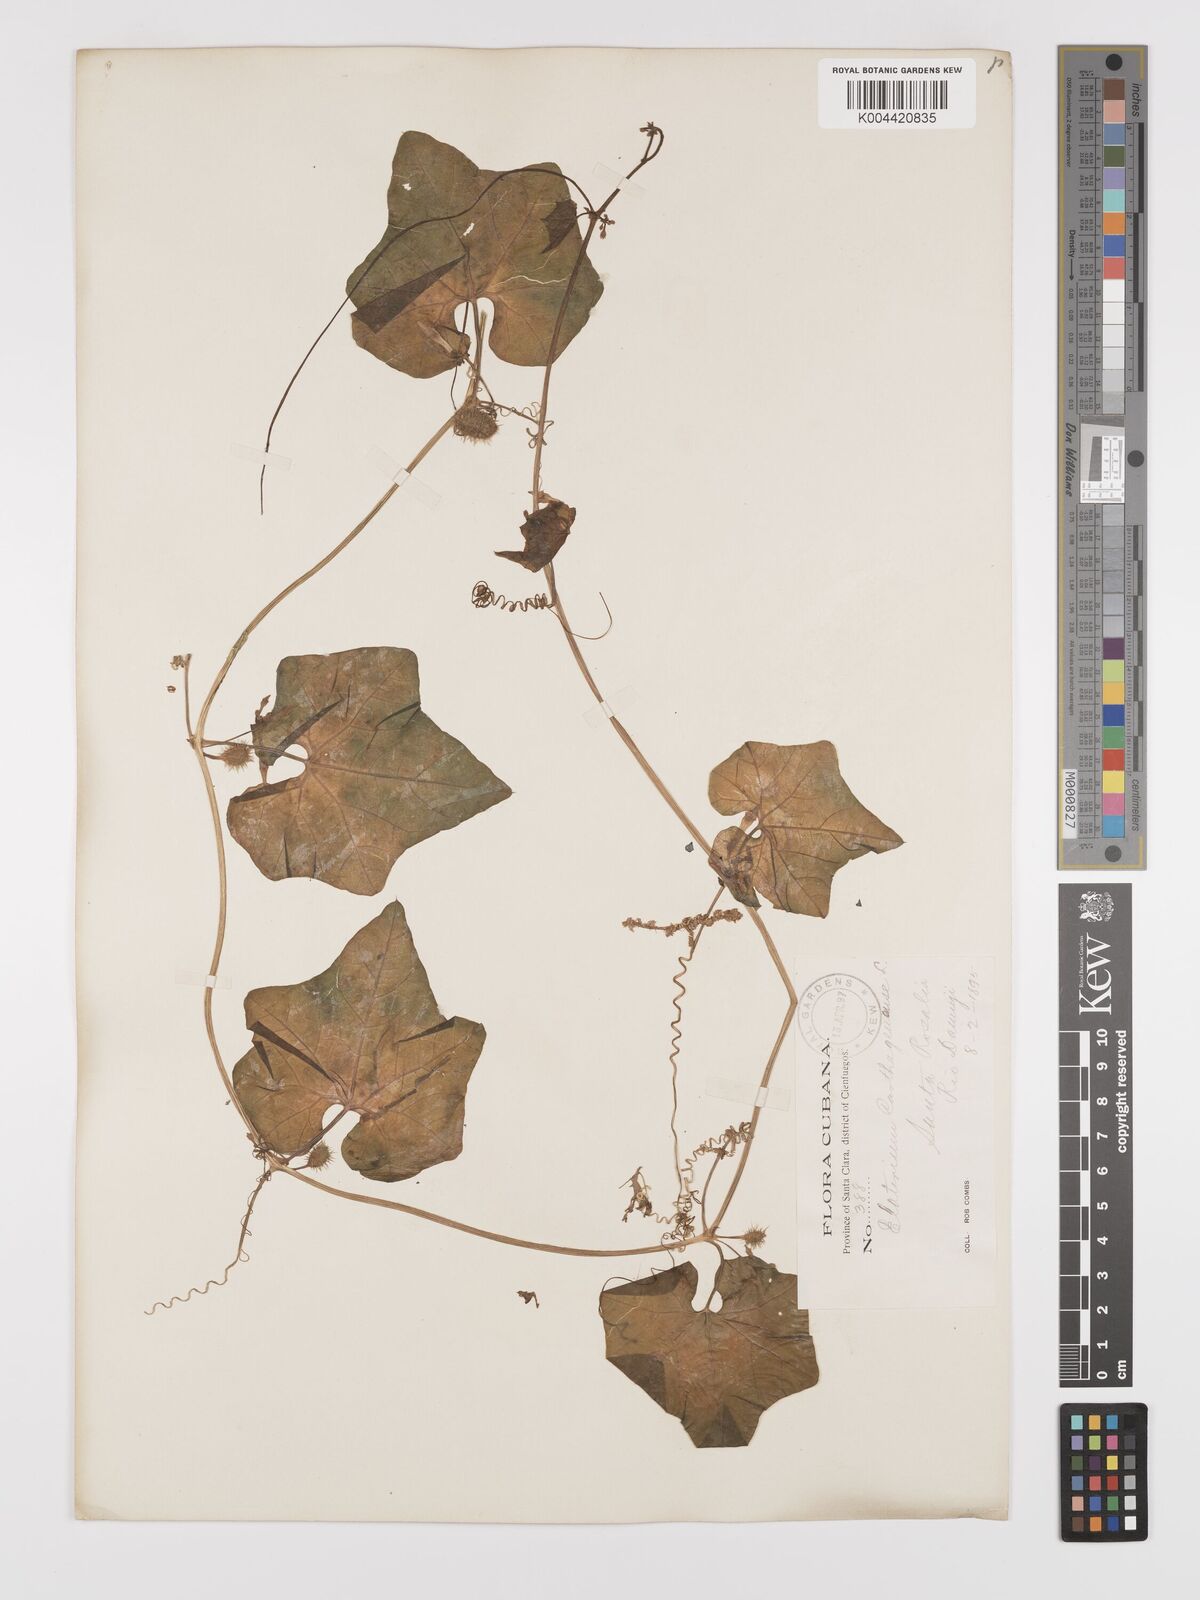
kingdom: Plantae
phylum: Tracheophyta
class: Magnoliopsida
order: Cucurbitales
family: Cucurbitaceae
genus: Cyclanthera
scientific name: Cyclanthera
